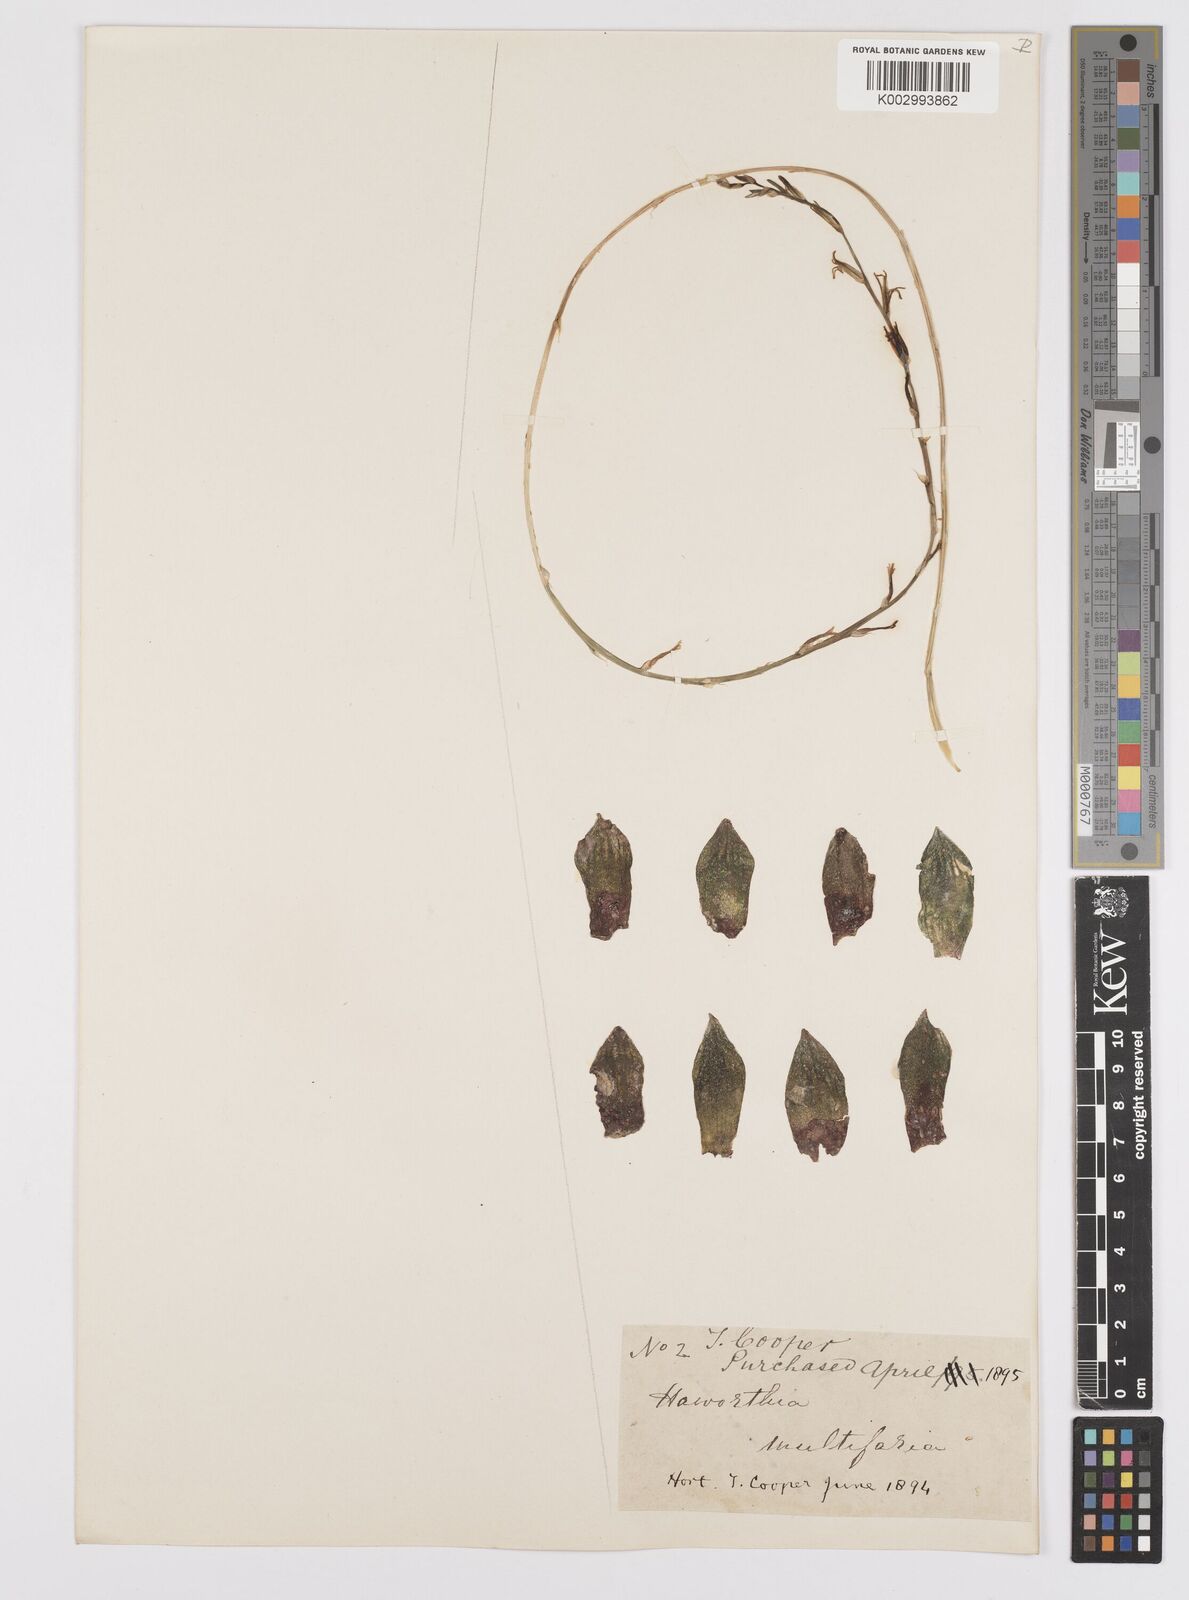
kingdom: Plantae
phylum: Tracheophyta
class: Liliopsida
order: Asparagales
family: Asphodelaceae
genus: Haworthia
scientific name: Haworthia mirabilis
